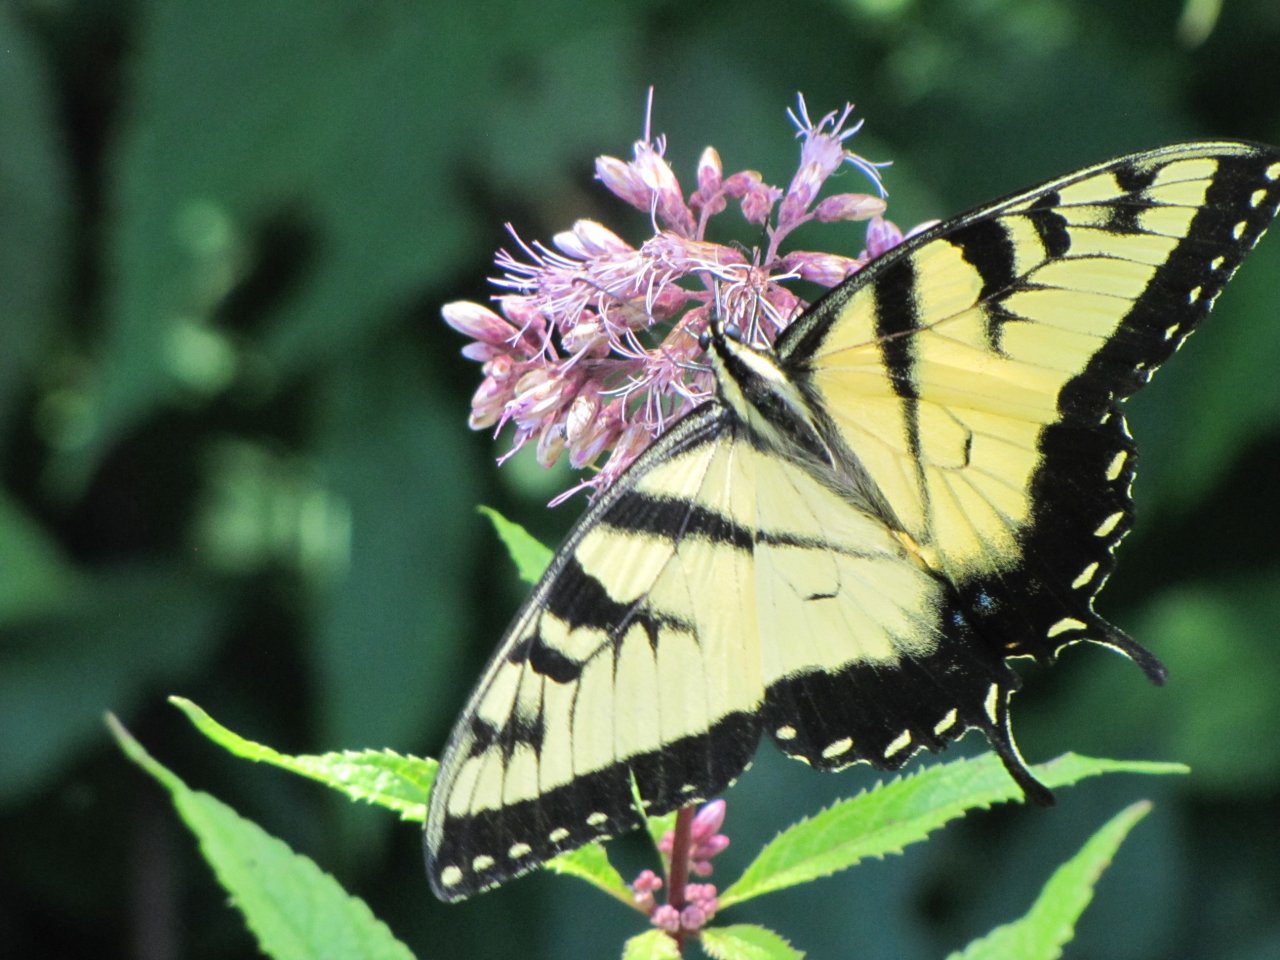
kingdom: Animalia
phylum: Arthropoda
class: Insecta
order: Lepidoptera
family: Papilionidae
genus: Pterourus
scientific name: Pterourus glaucus
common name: Eastern Tiger Swallowtail
